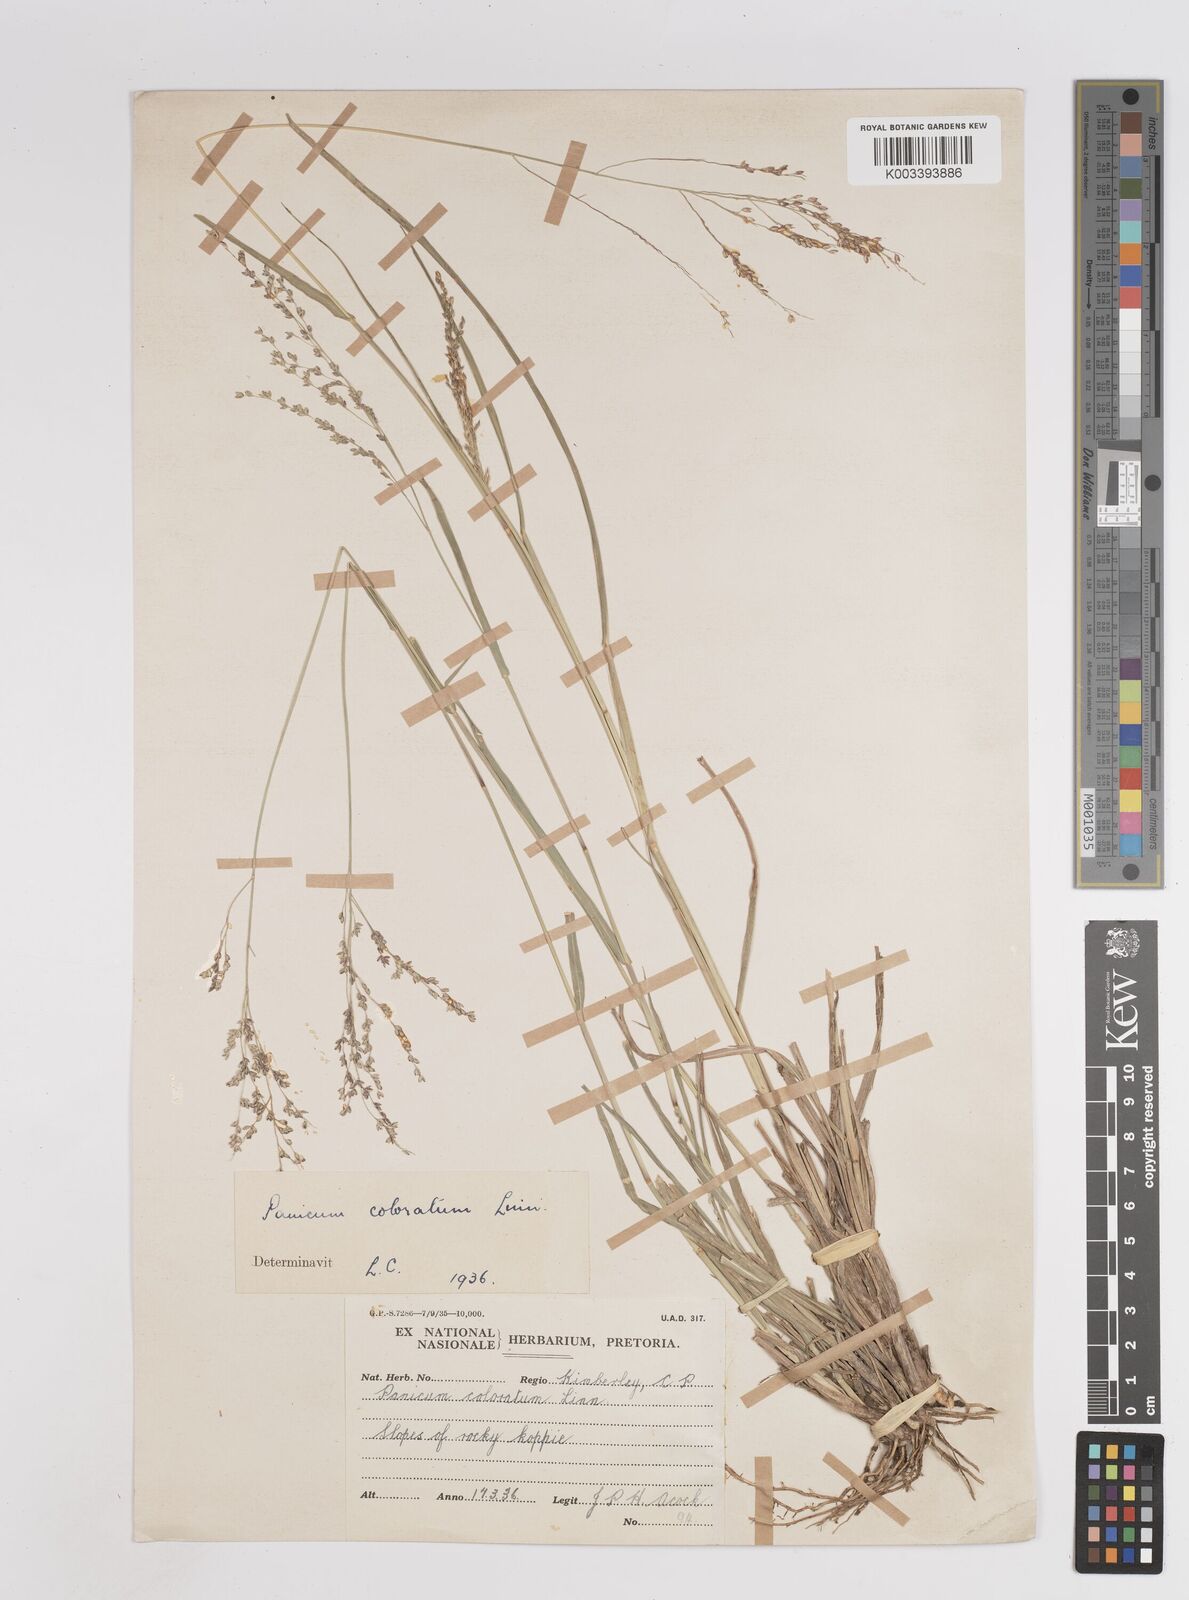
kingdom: Plantae
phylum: Tracheophyta
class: Liliopsida
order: Poales
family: Poaceae
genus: Panicum
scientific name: Panicum
